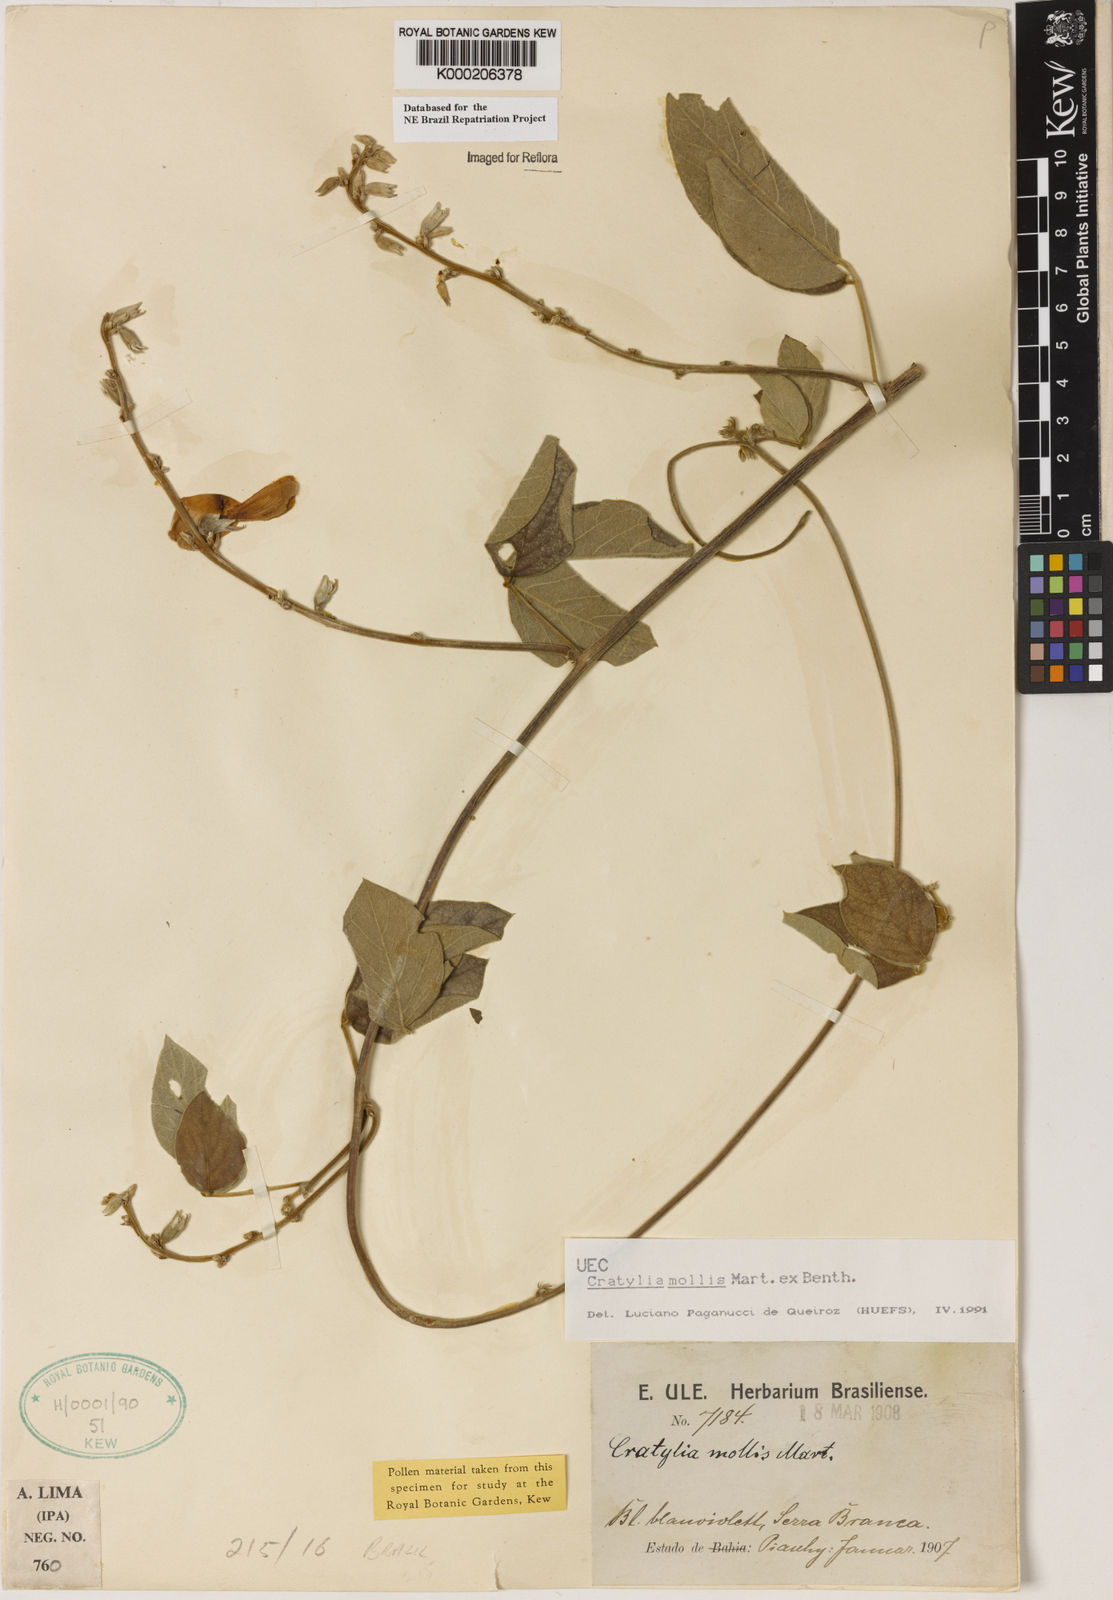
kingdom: Plantae
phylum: Tracheophyta
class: Magnoliopsida
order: Fabales
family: Fabaceae
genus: Cratylia
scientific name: Cratylia mollis
